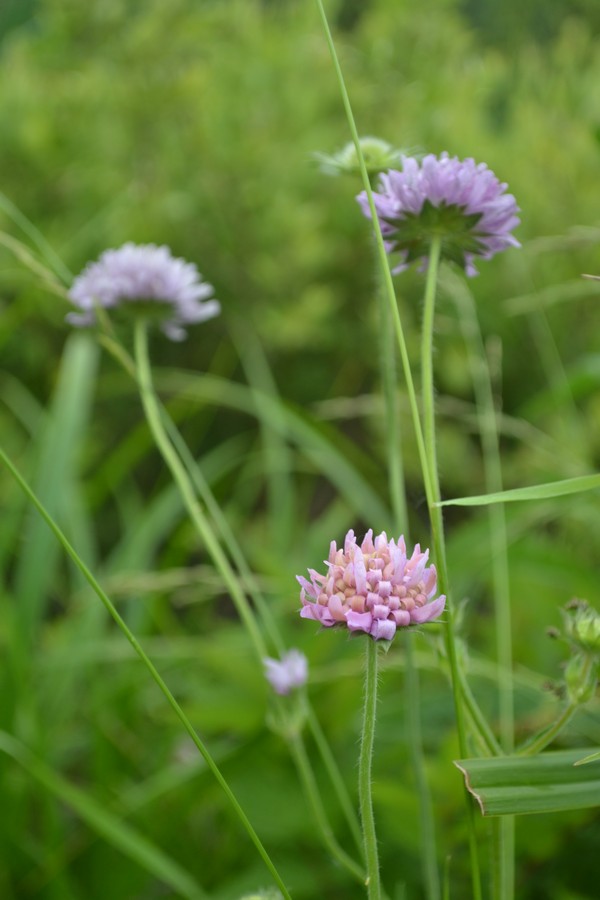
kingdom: Plantae
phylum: Tracheophyta
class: Magnoliopsida
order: Dipsacales
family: Caprifoliaceae
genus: Knautia
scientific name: Knautia arvensis
